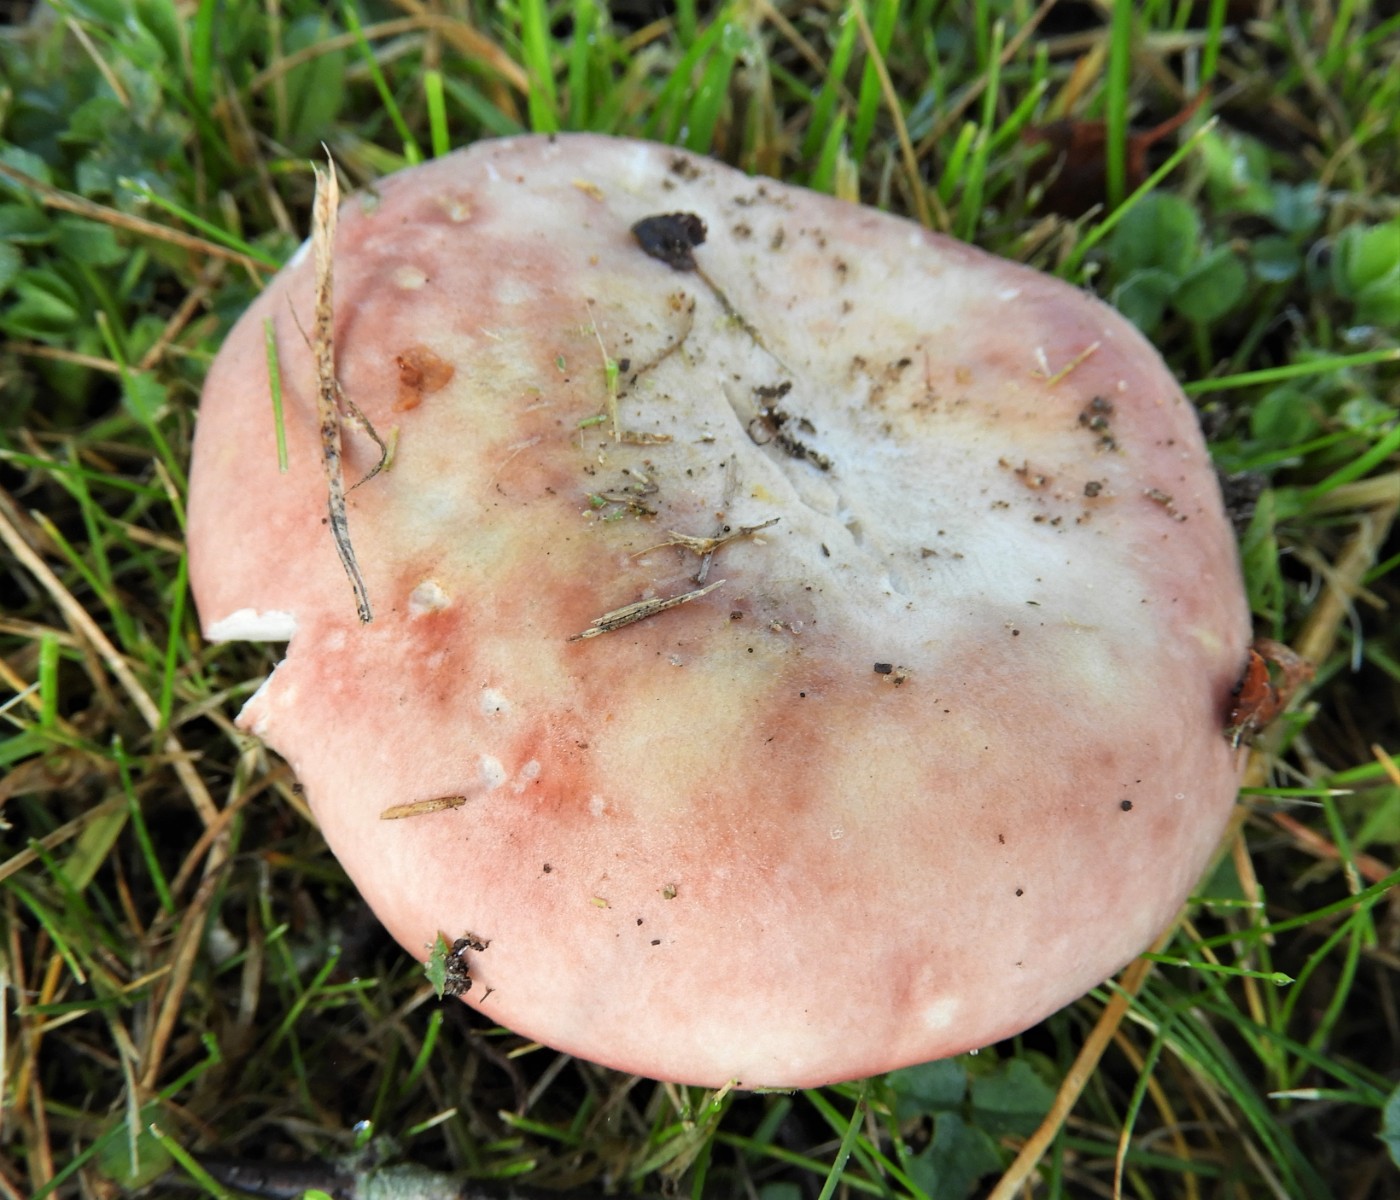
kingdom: Fungi
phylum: Basidiomycota
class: Agaricomycetes
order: Russulales
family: Russulaceae
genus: Russula
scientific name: Russula depallens
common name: falmende skørhat
